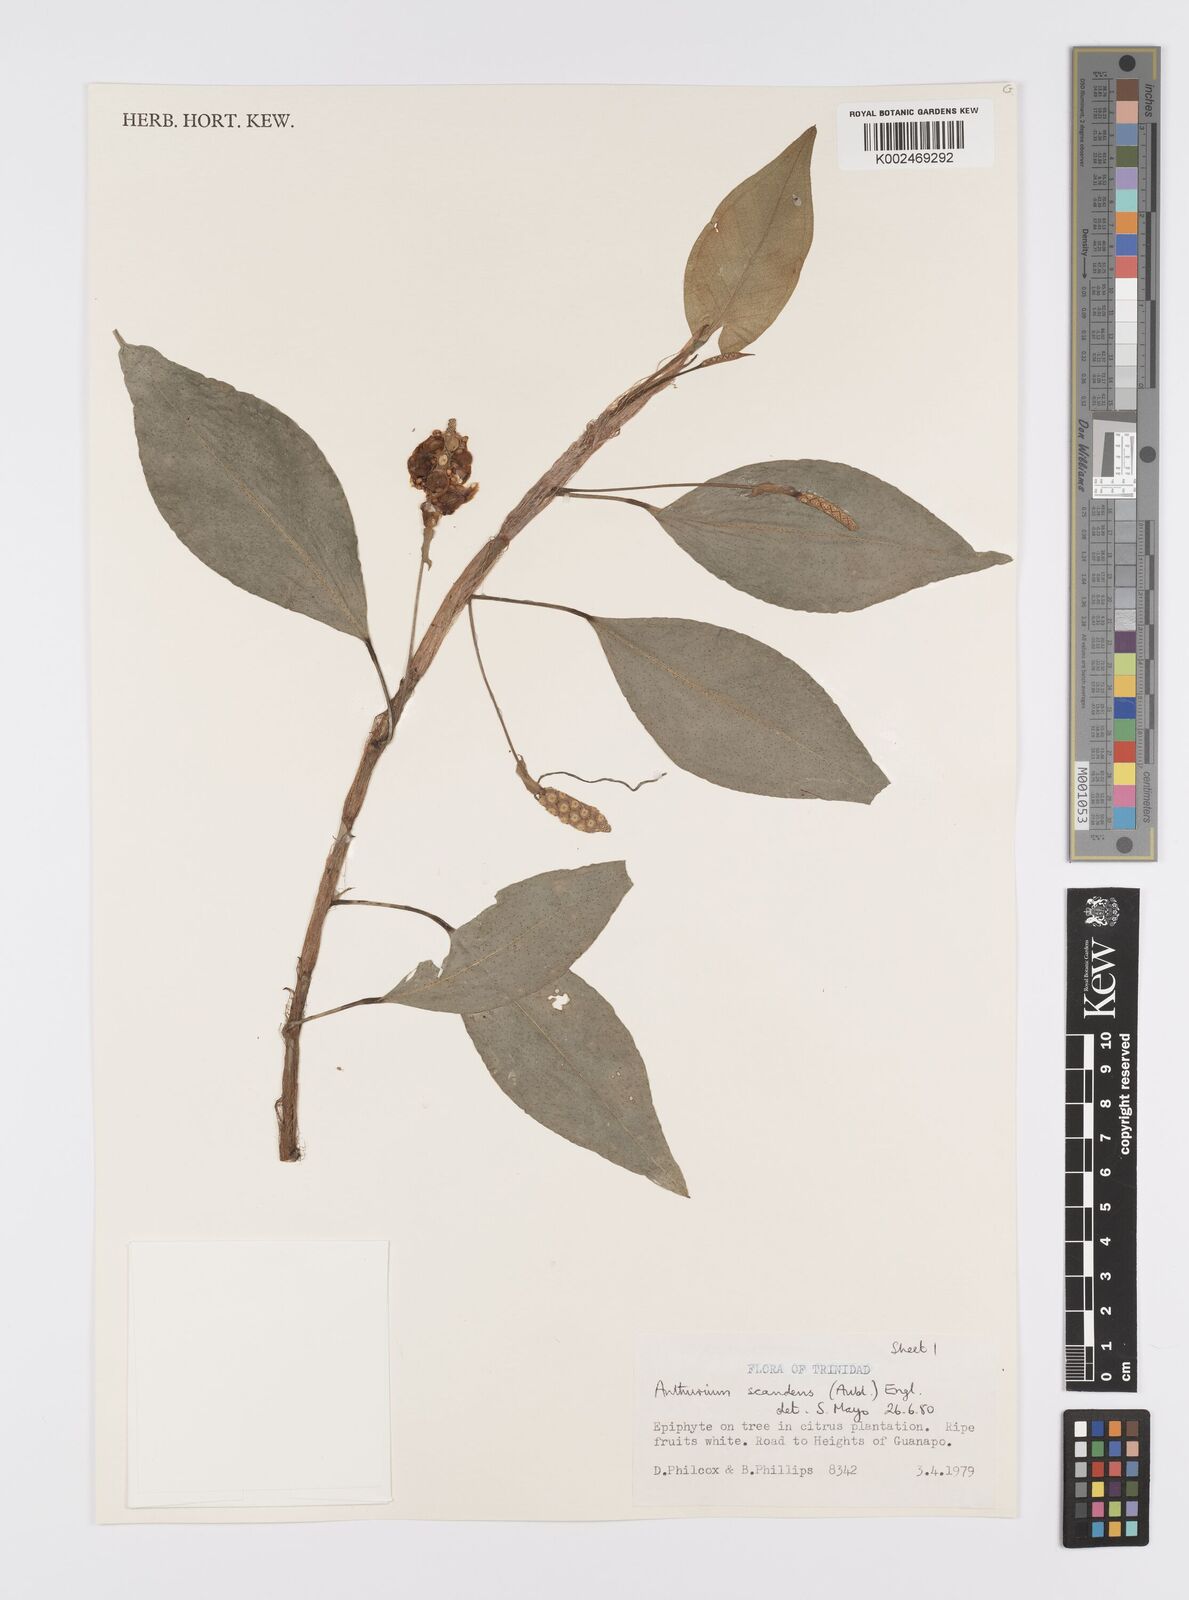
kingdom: Plantae
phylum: Tracheophyta
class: Liliopsida
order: Alismatales
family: Araceae
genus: Anthurium
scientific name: Anthurium scandens
